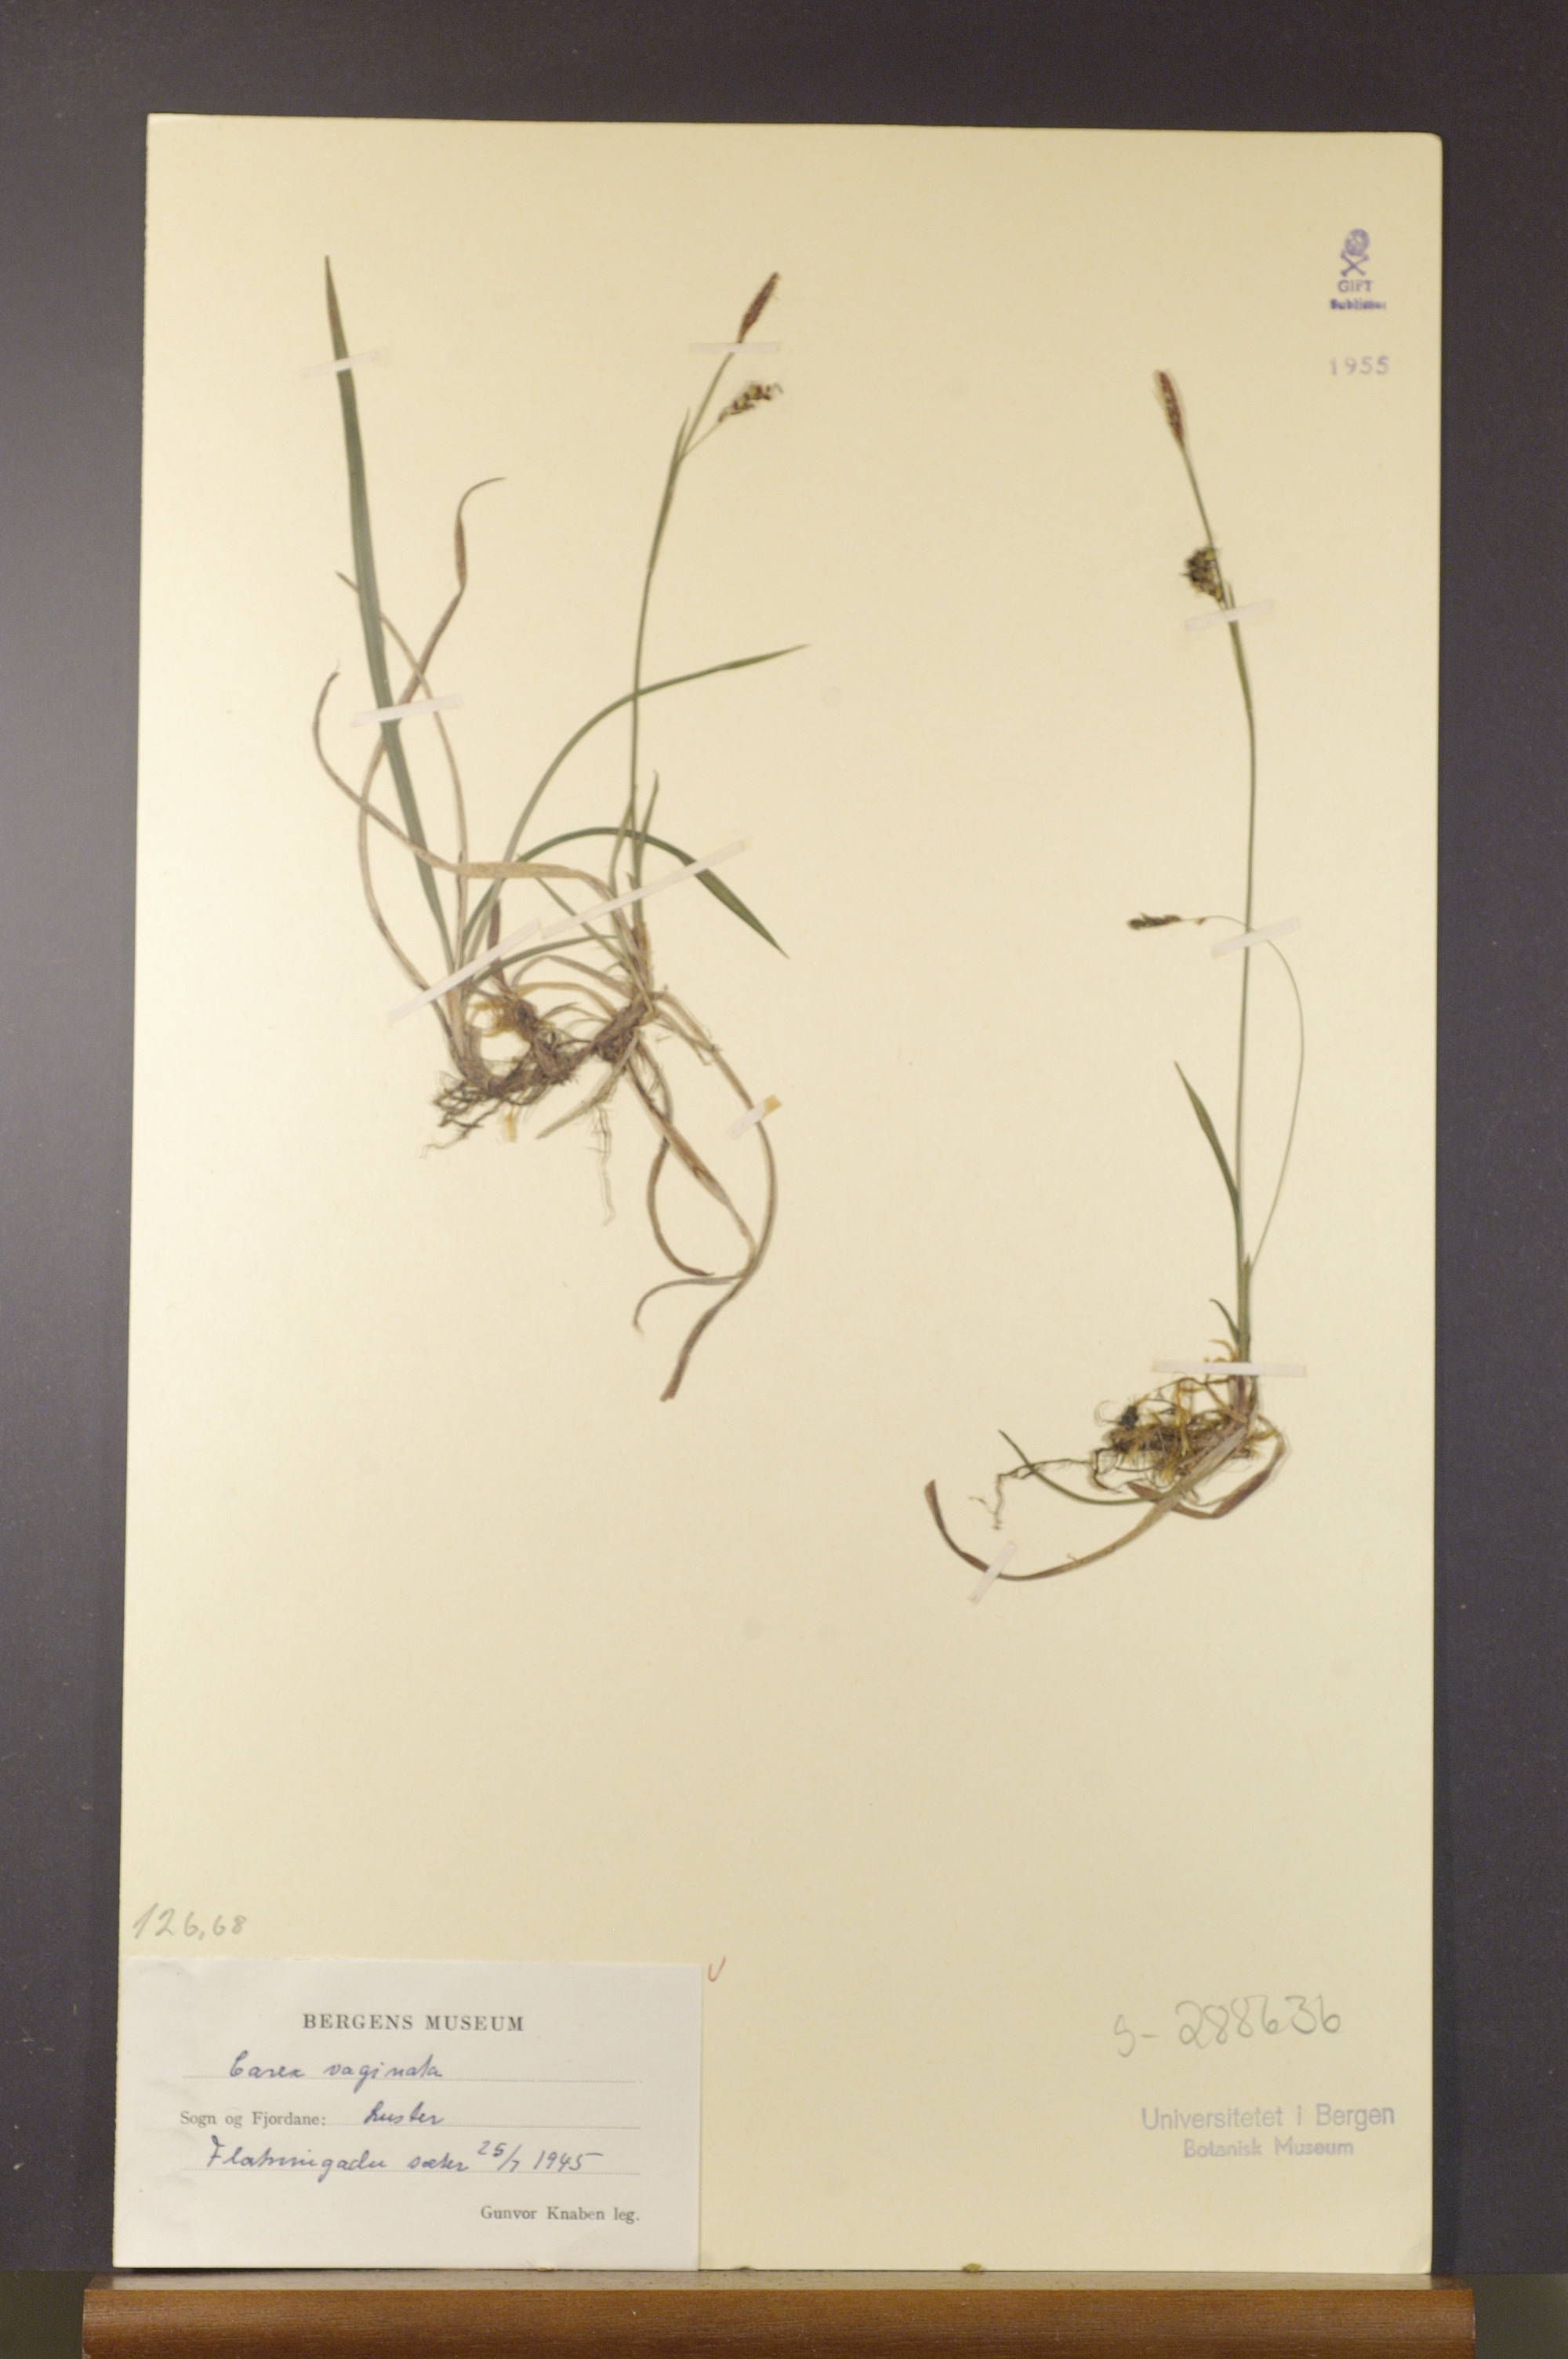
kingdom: Plantae
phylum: Tracheophyta
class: Liliopsida
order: Poales
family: Cyperaceae
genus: Carex
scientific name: Carex vaginata
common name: Sheathed sedge
